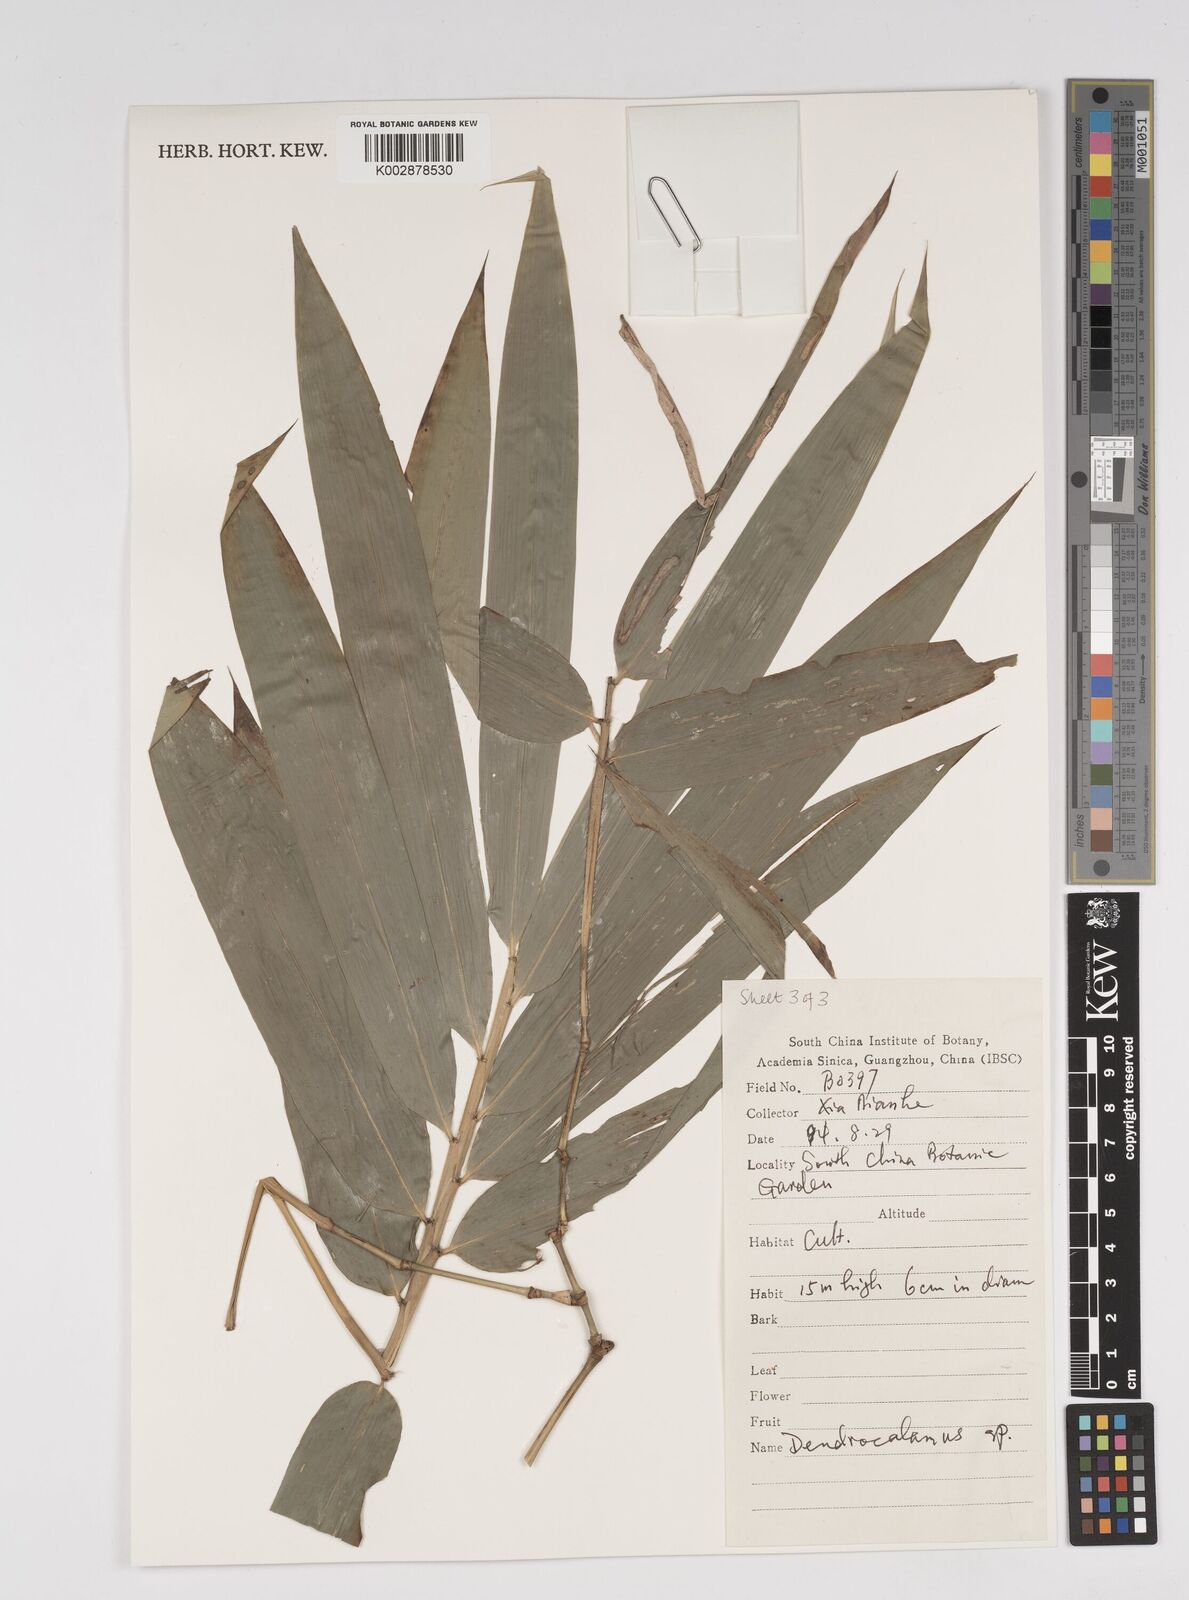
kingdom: Plantae
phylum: Tracheophyta
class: Liliopsida
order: Poales
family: Poaceae
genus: Dendrocalamus
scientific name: Dendrocalamus
